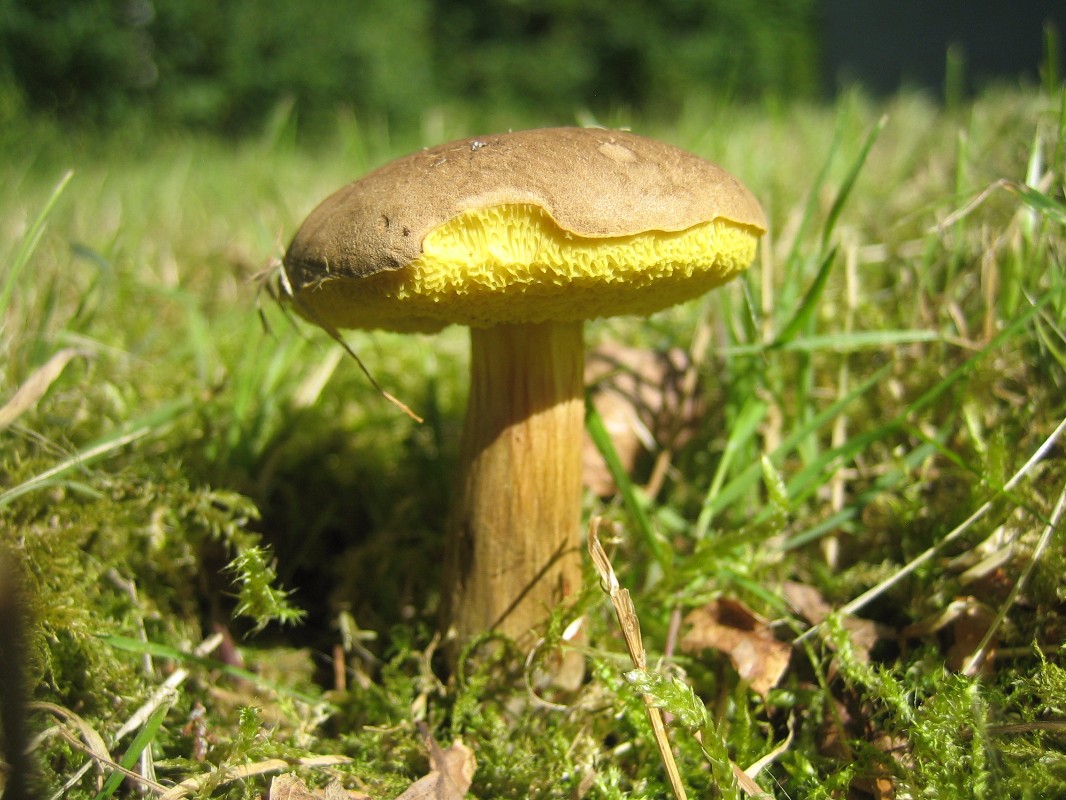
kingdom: Fungi
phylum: Basidiomycota
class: Agaricomycetes
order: Boletales
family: Boletaceae
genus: Xerocomus
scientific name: Xerocomus subtomentosus
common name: filtet rørhat
